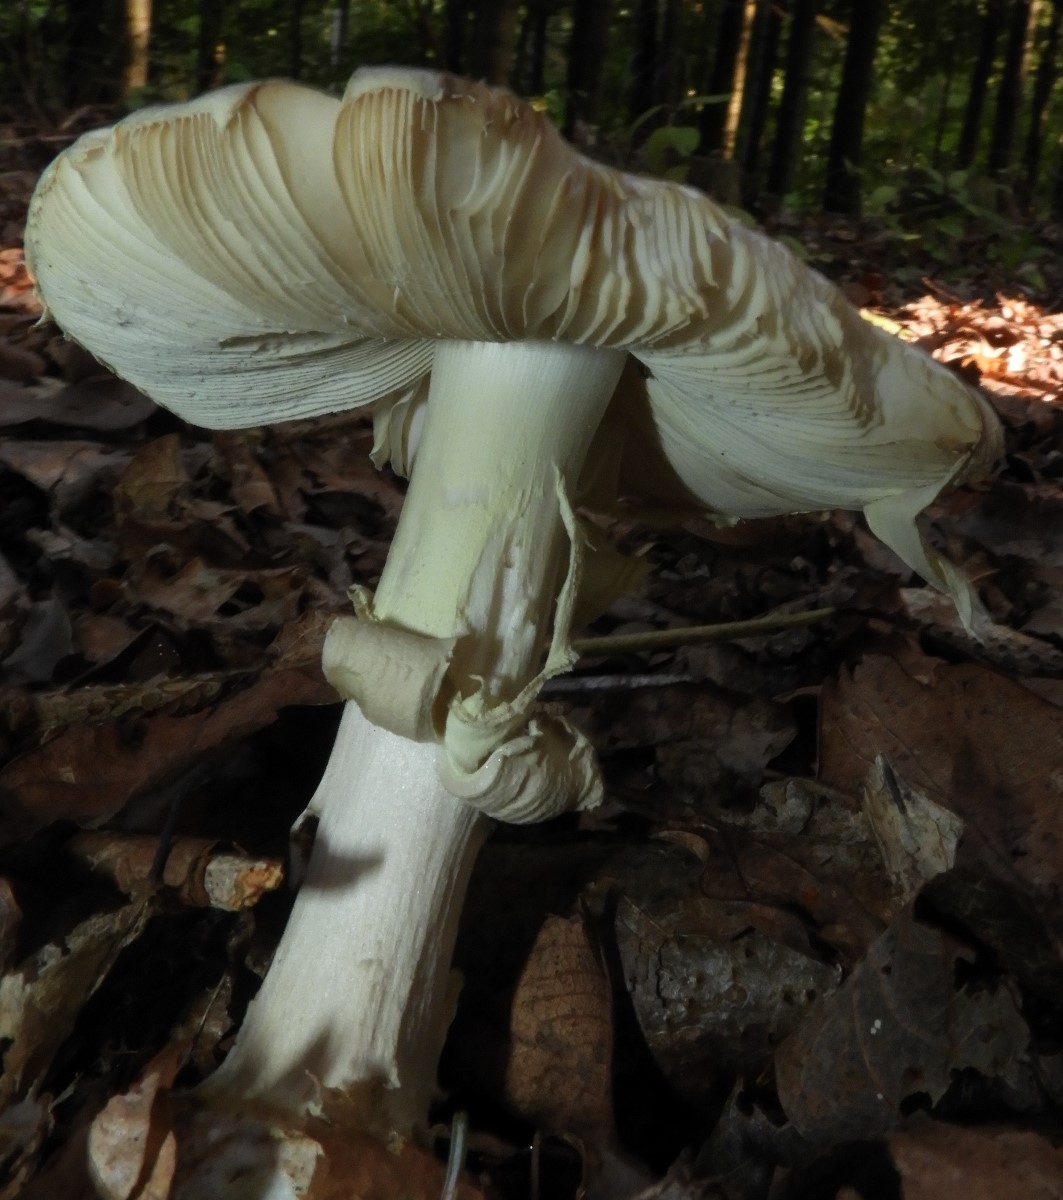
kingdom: Fungi
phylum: Basidiomycota
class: Agaricomycetes
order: Agaricales
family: Amanitaceae
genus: Amanita
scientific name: Amanita citrina
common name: kugleknoldet fluesvamp
